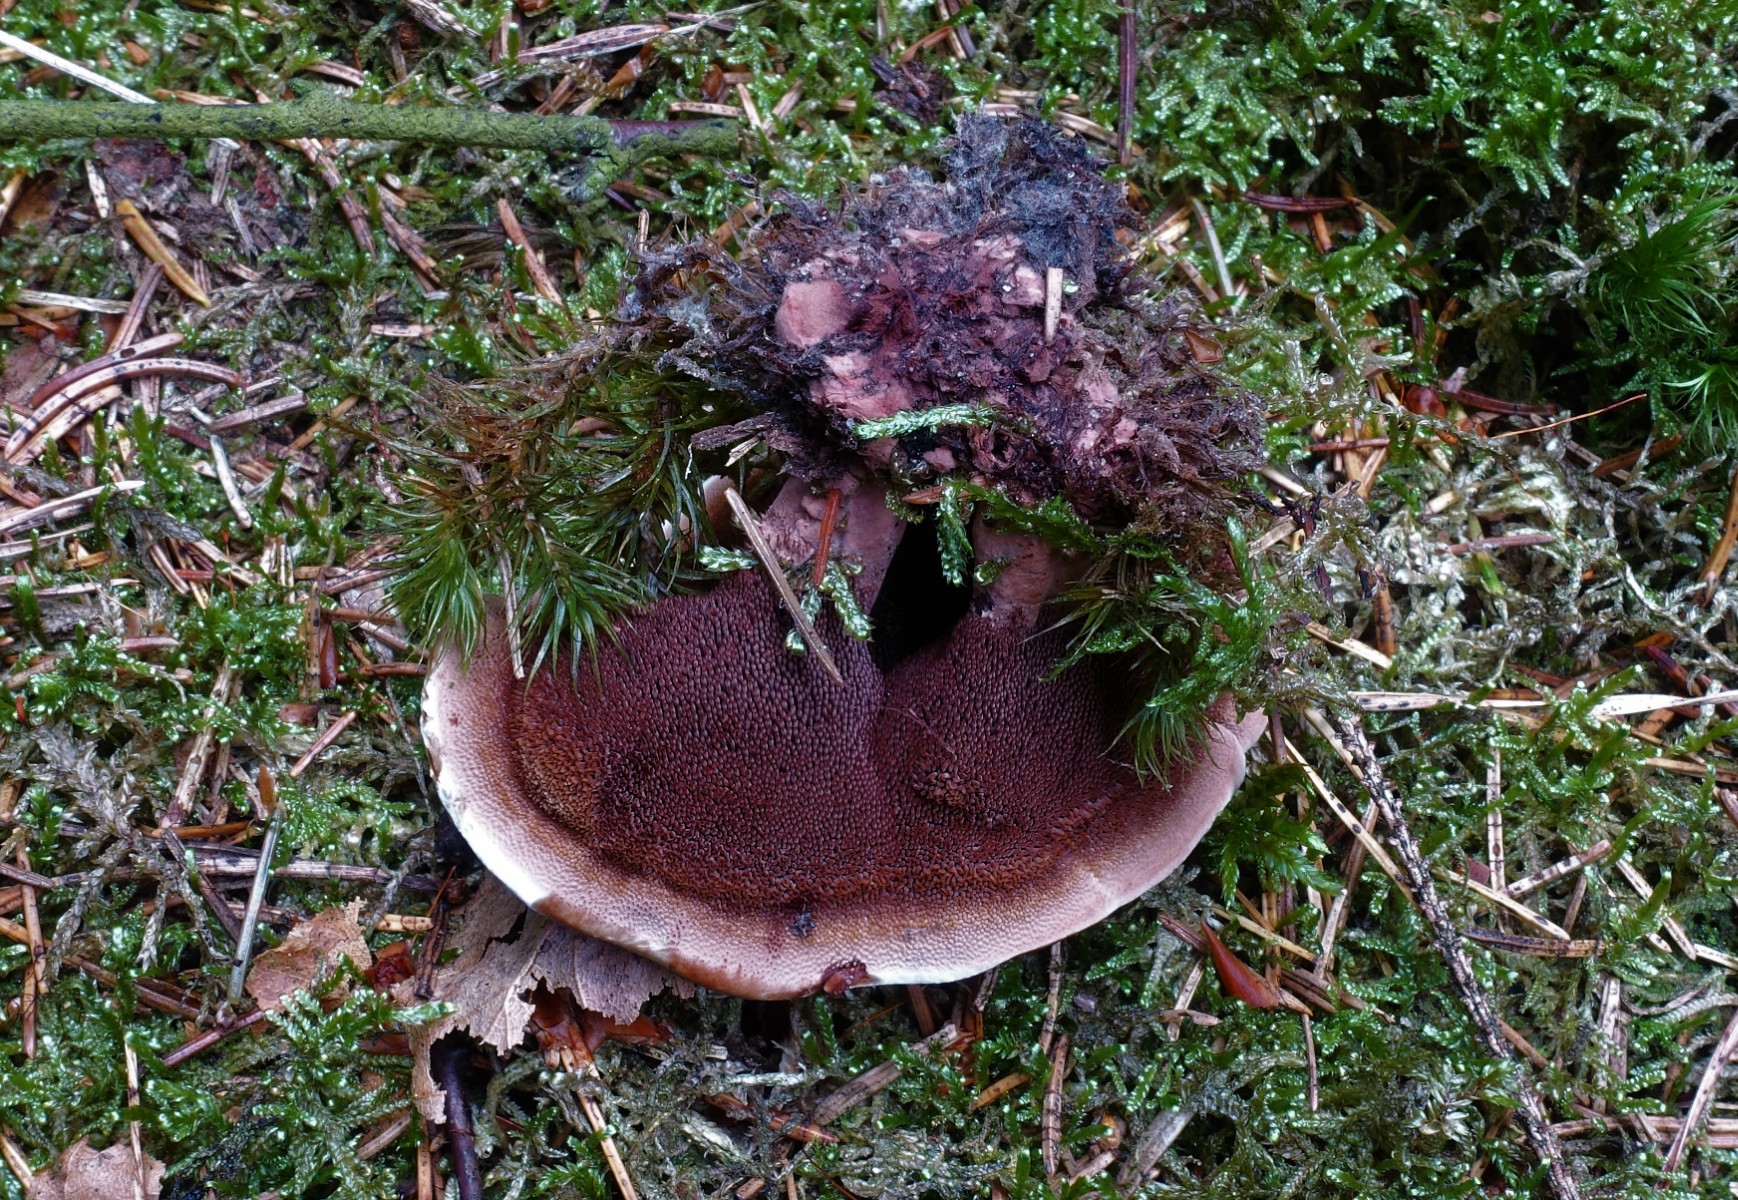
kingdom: Fungi
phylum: Basidiomycota
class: Agaricomycetes
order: Thelephorales
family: Bankeraceae
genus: Hydnellum
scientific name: Hydnellum concrescens
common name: bæltet korkpigsvamp
